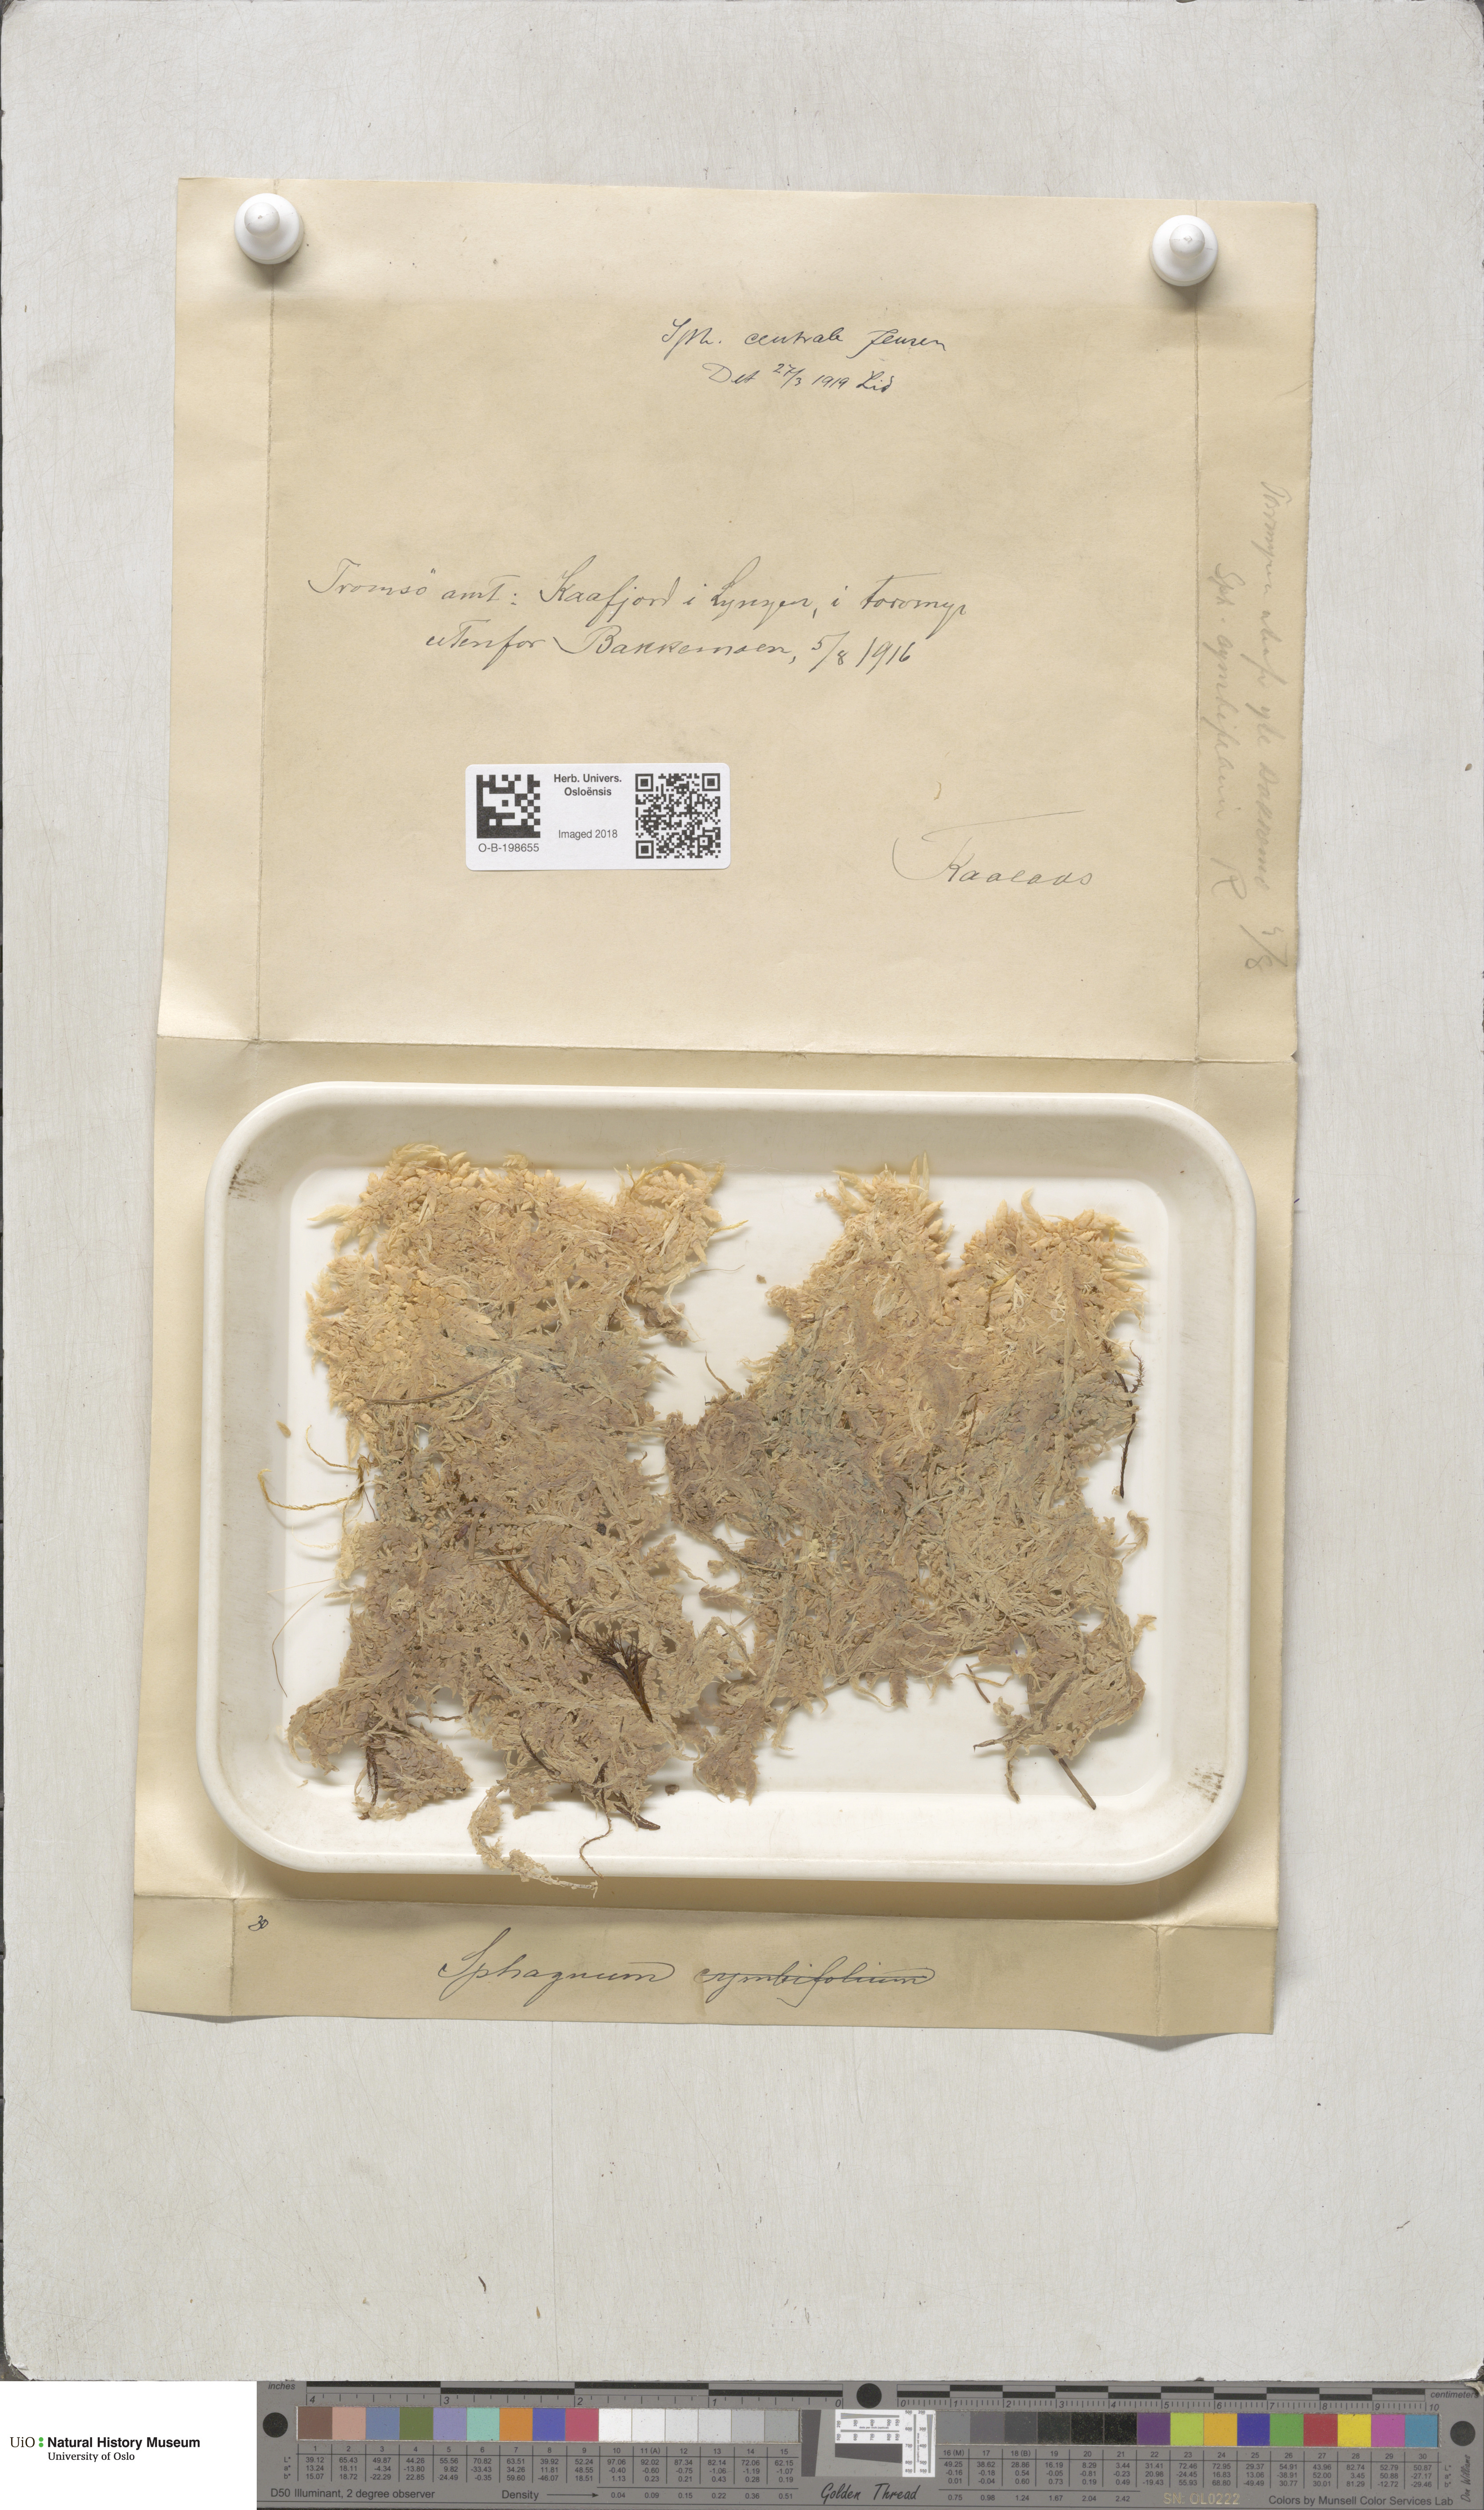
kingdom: Plantae
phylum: Bryophyta
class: Sphagnopsida
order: Sphagnales
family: Sphagnaceae
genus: Sphagnum
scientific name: Sphagnum centrale
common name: Central peat moss
